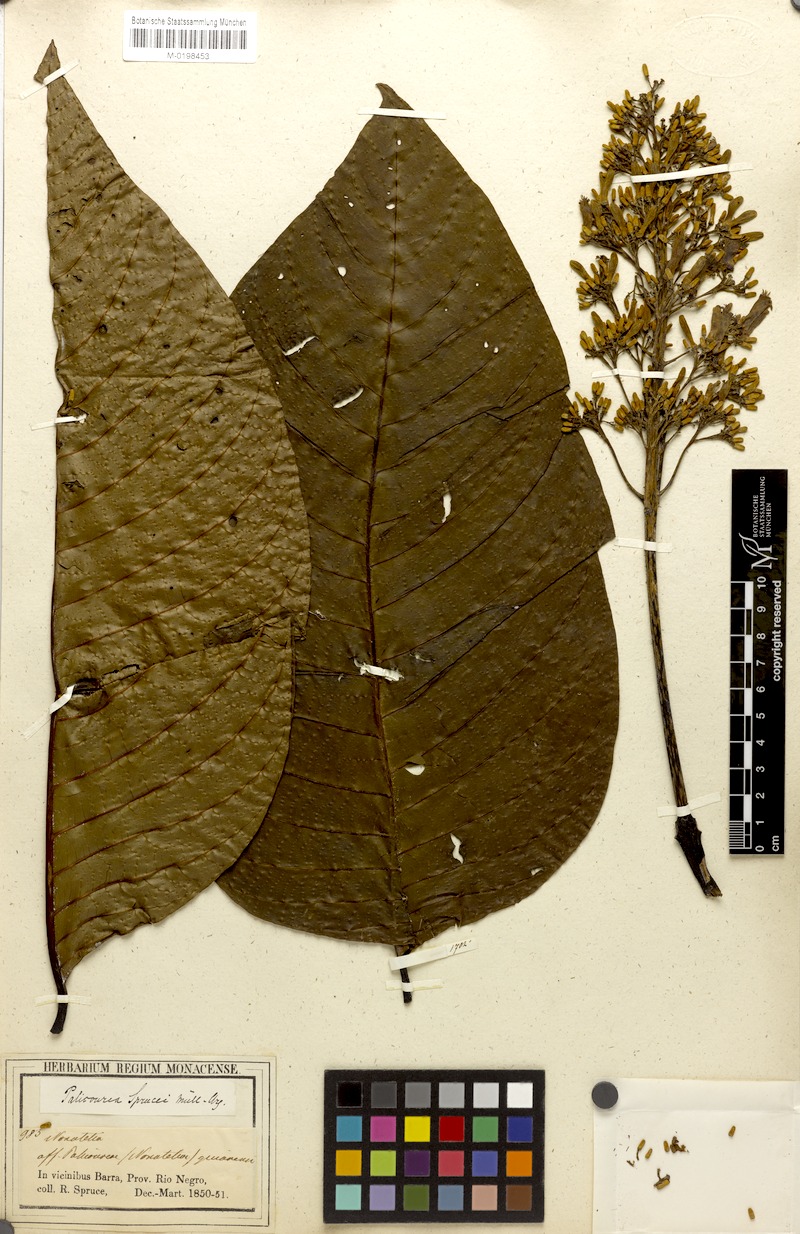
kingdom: Plantae
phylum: Tracheophyta
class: Magnoliopsida
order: Gentianales
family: Rubiaceae
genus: Palicourea
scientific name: Palicourea grandifolia
